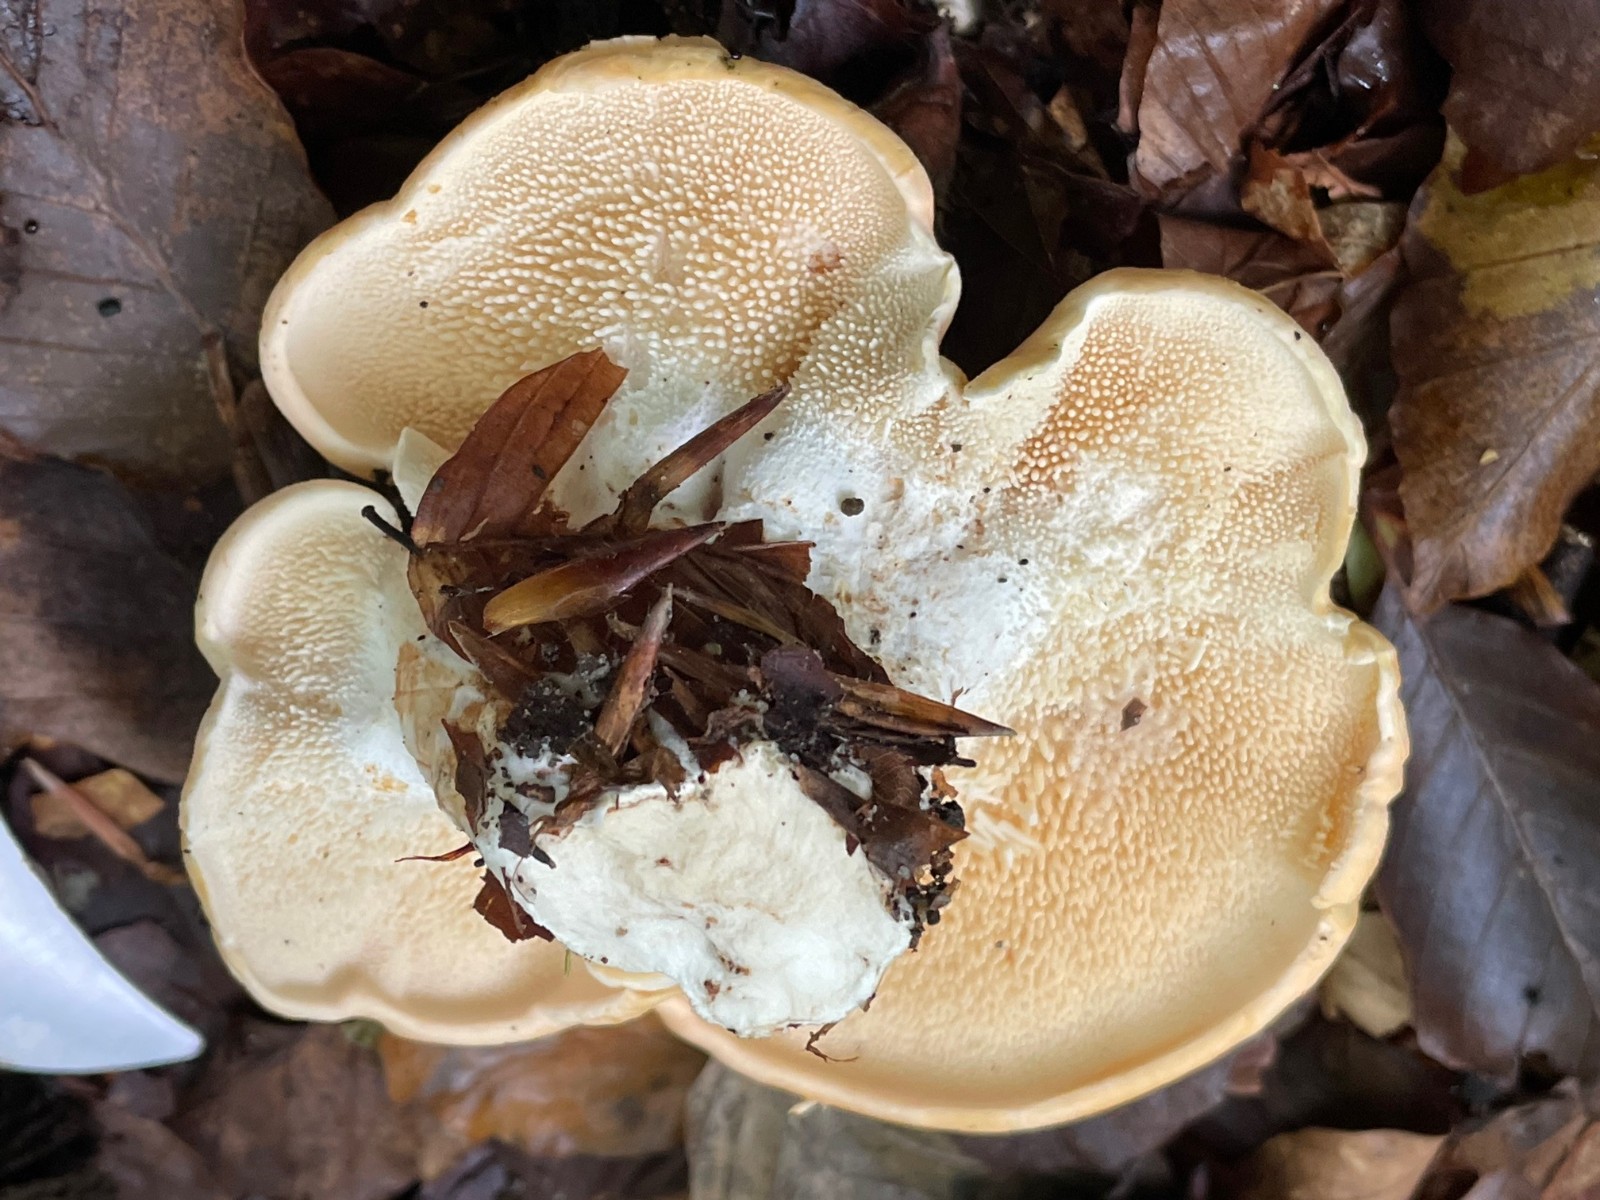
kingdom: Fungi
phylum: Basidiomycota
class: Agaricomycetes
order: Cantharellales
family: Hydnaceae
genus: Hydnum
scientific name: Hydnum repandum
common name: almindelig pigsvamp
